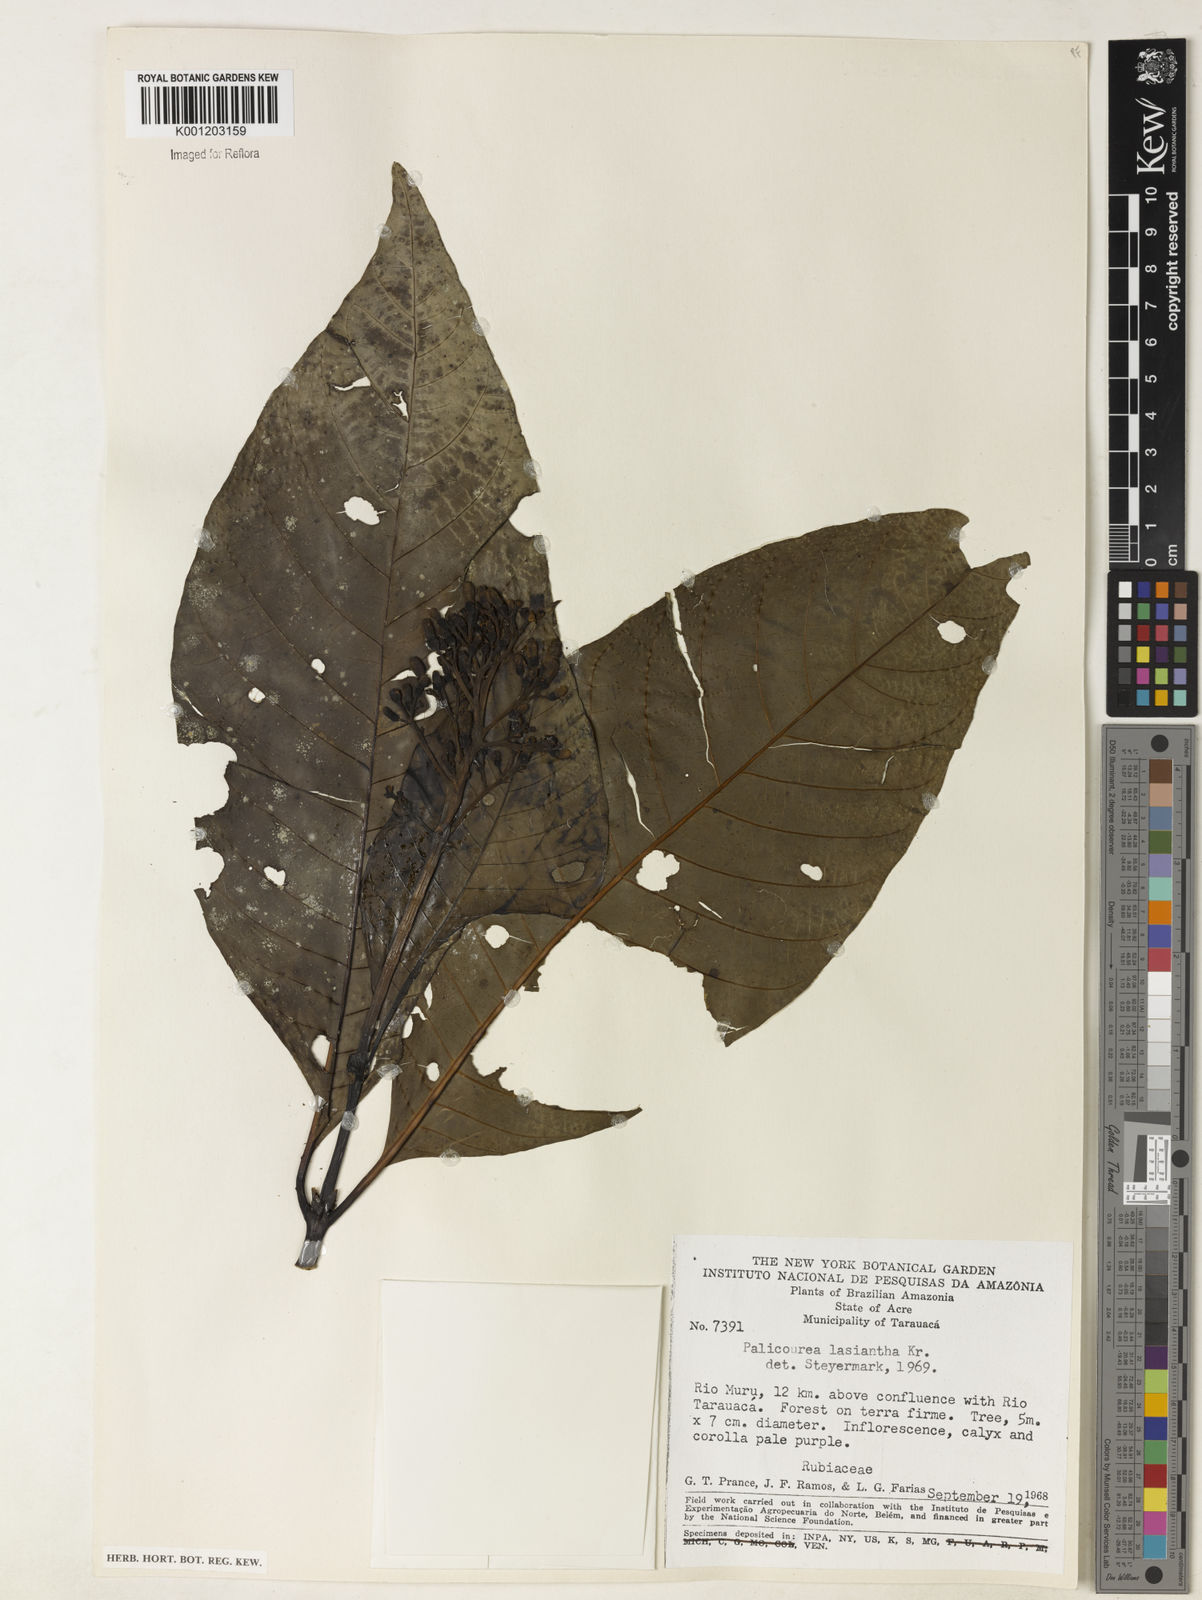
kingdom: Plantae
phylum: Tracheophyta
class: Magnoliopsida
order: Gentianales
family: Rubiaceae
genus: Palicourea
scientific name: Palicourea lasiantha
